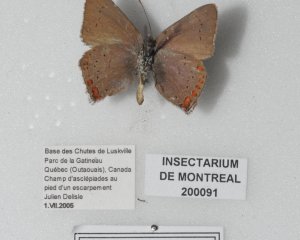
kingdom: Animalia
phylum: Arthropoda
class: Insecta
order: Lepidoptera
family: Lycaenidae
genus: Harkenclenus
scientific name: Harkenclenus titus
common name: Coral Hairstreak
